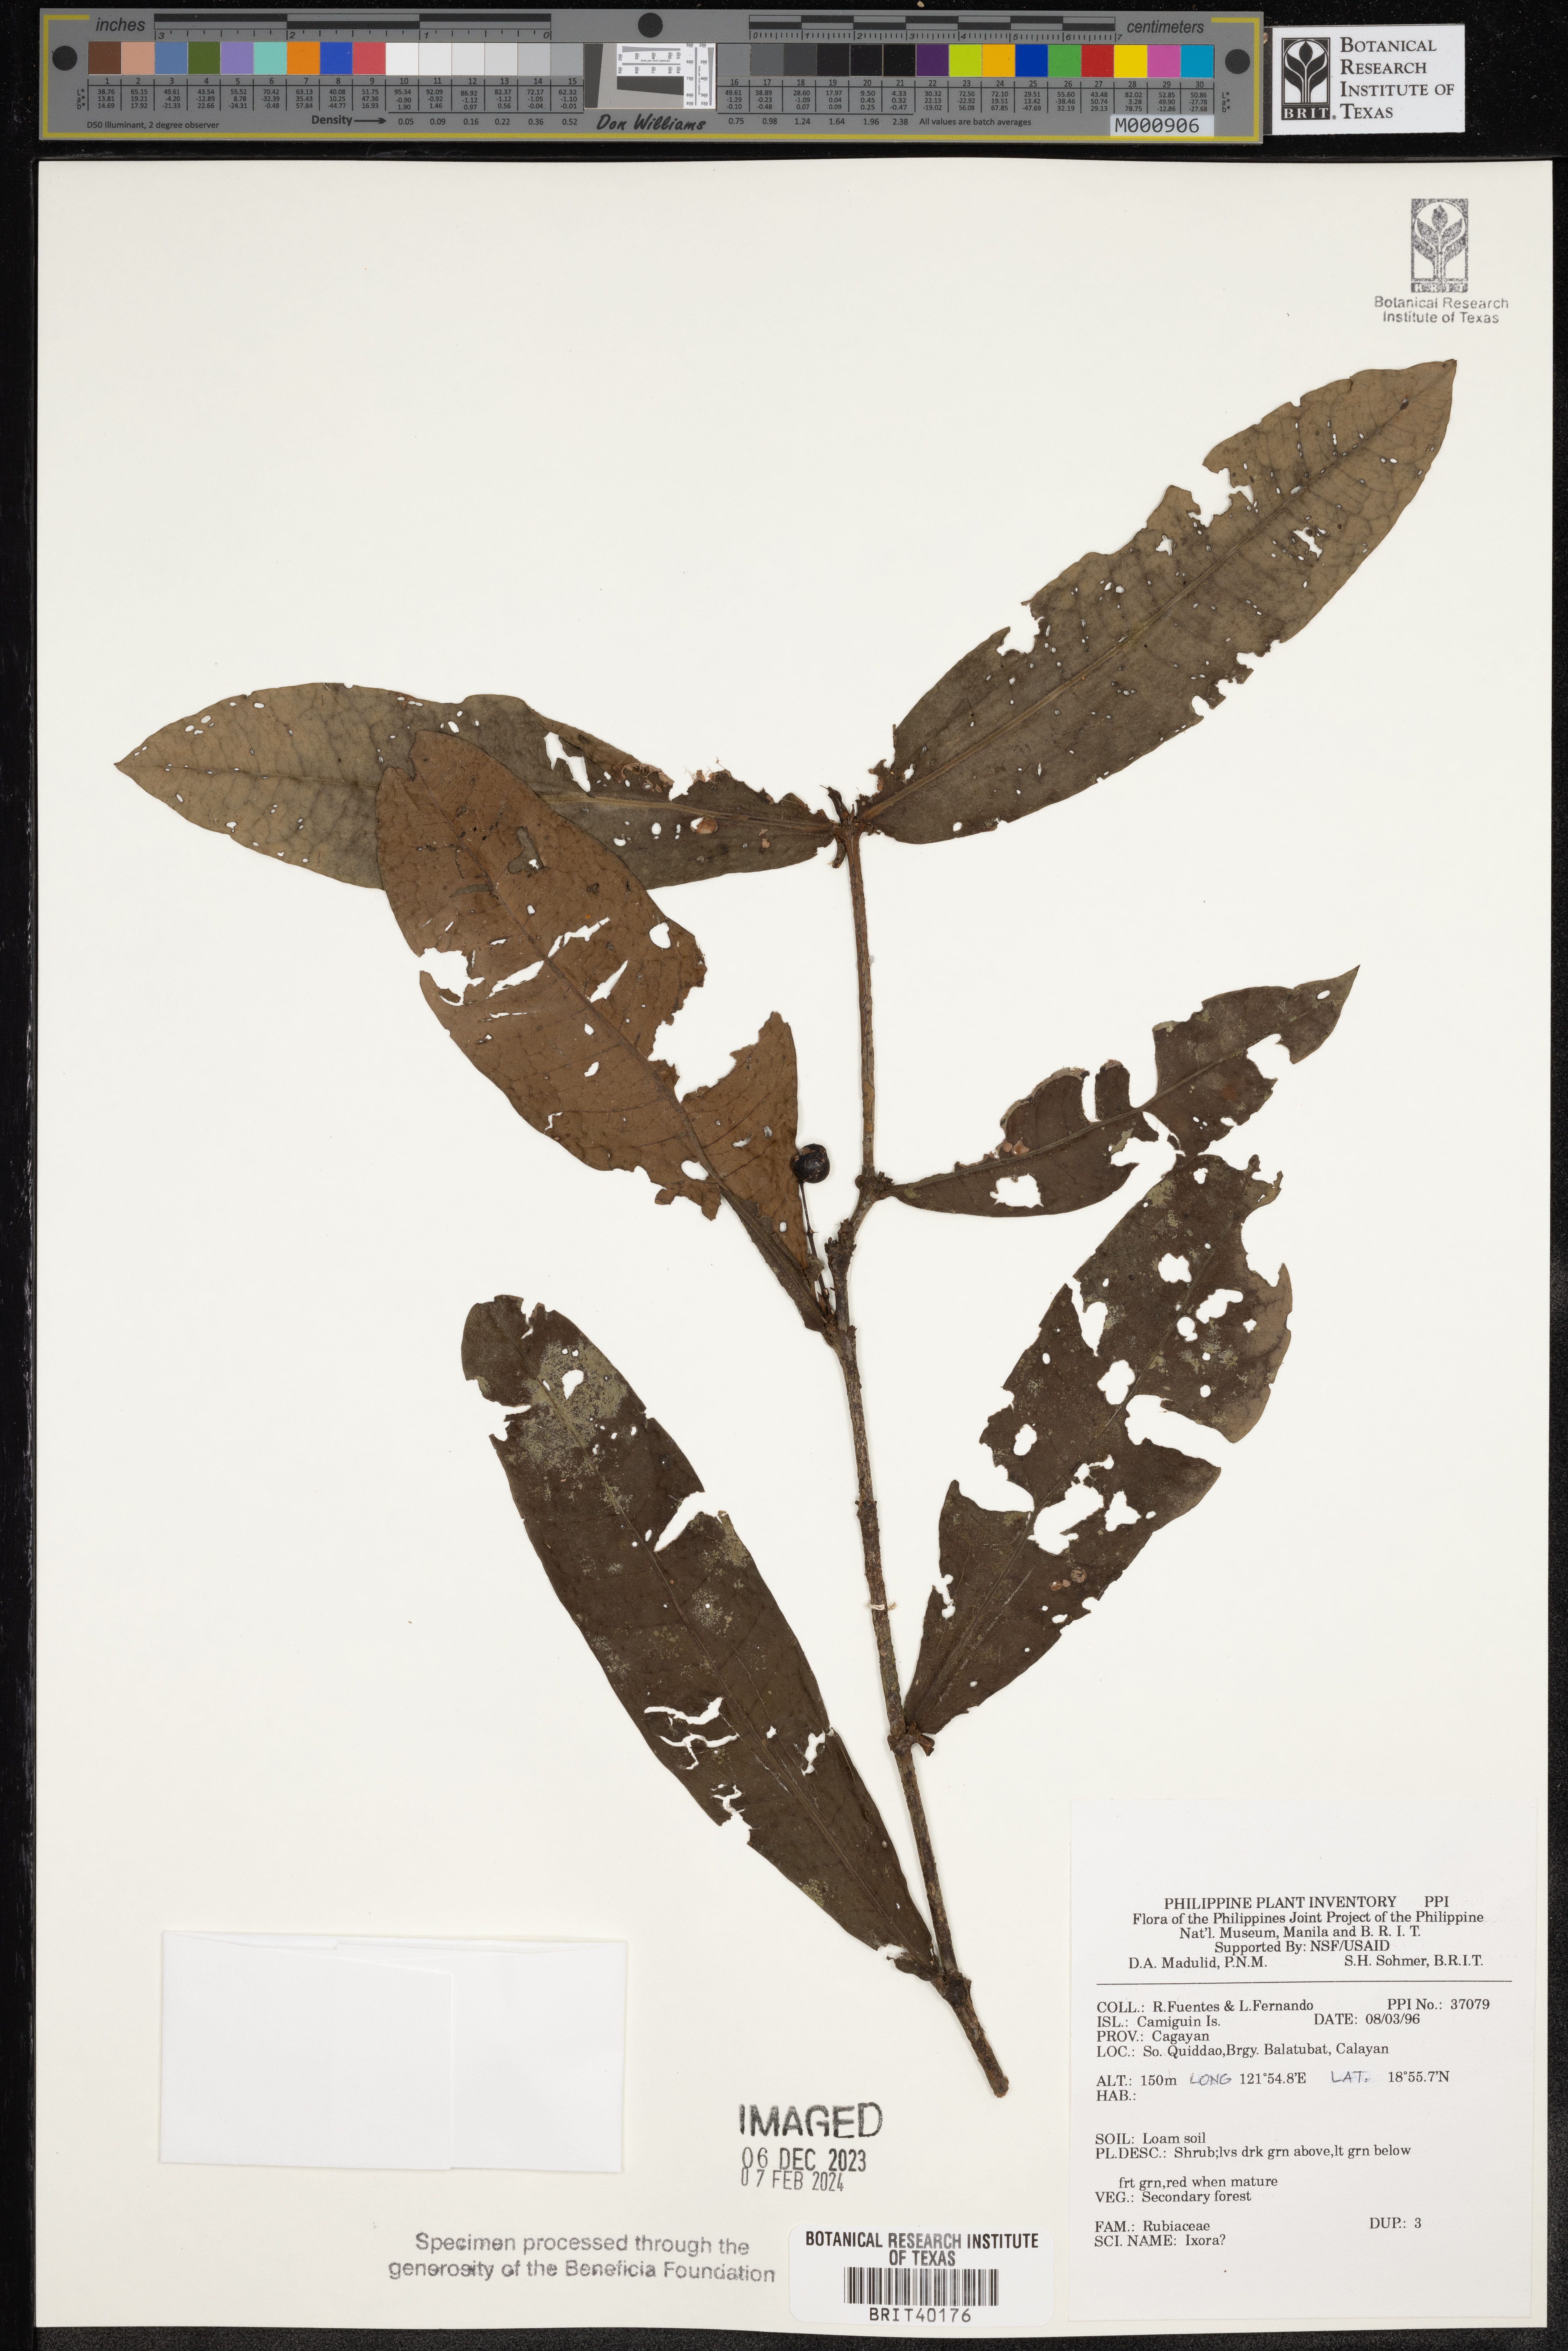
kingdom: Plantae
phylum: Tracheophyta
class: Magnoliopsida
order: Gentianales
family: Rubiaceae
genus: Ixora
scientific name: Ixora
